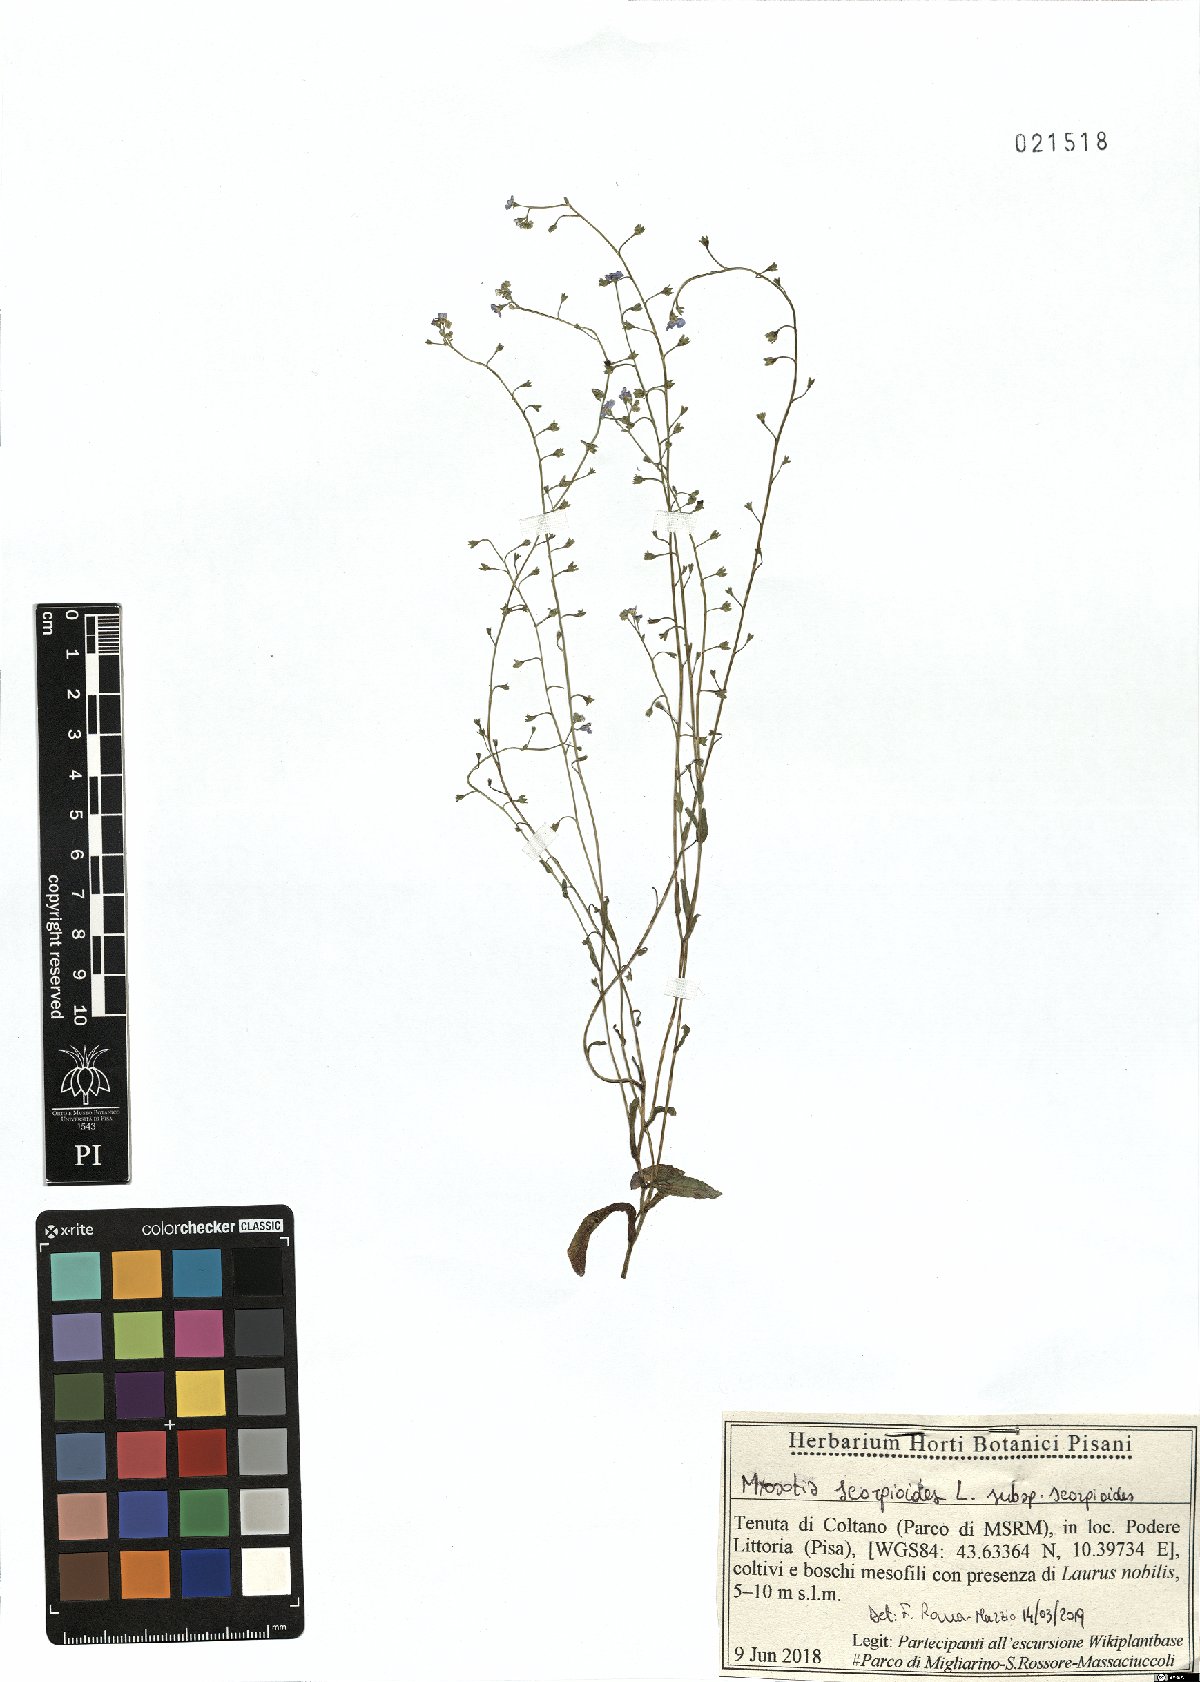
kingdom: Plantae
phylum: Tracheophyta
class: Magnoliopsida
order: Boraginales
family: Boraginaceae
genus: Myosotis
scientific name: Myosotis scorpioides
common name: Water forget-me-not
